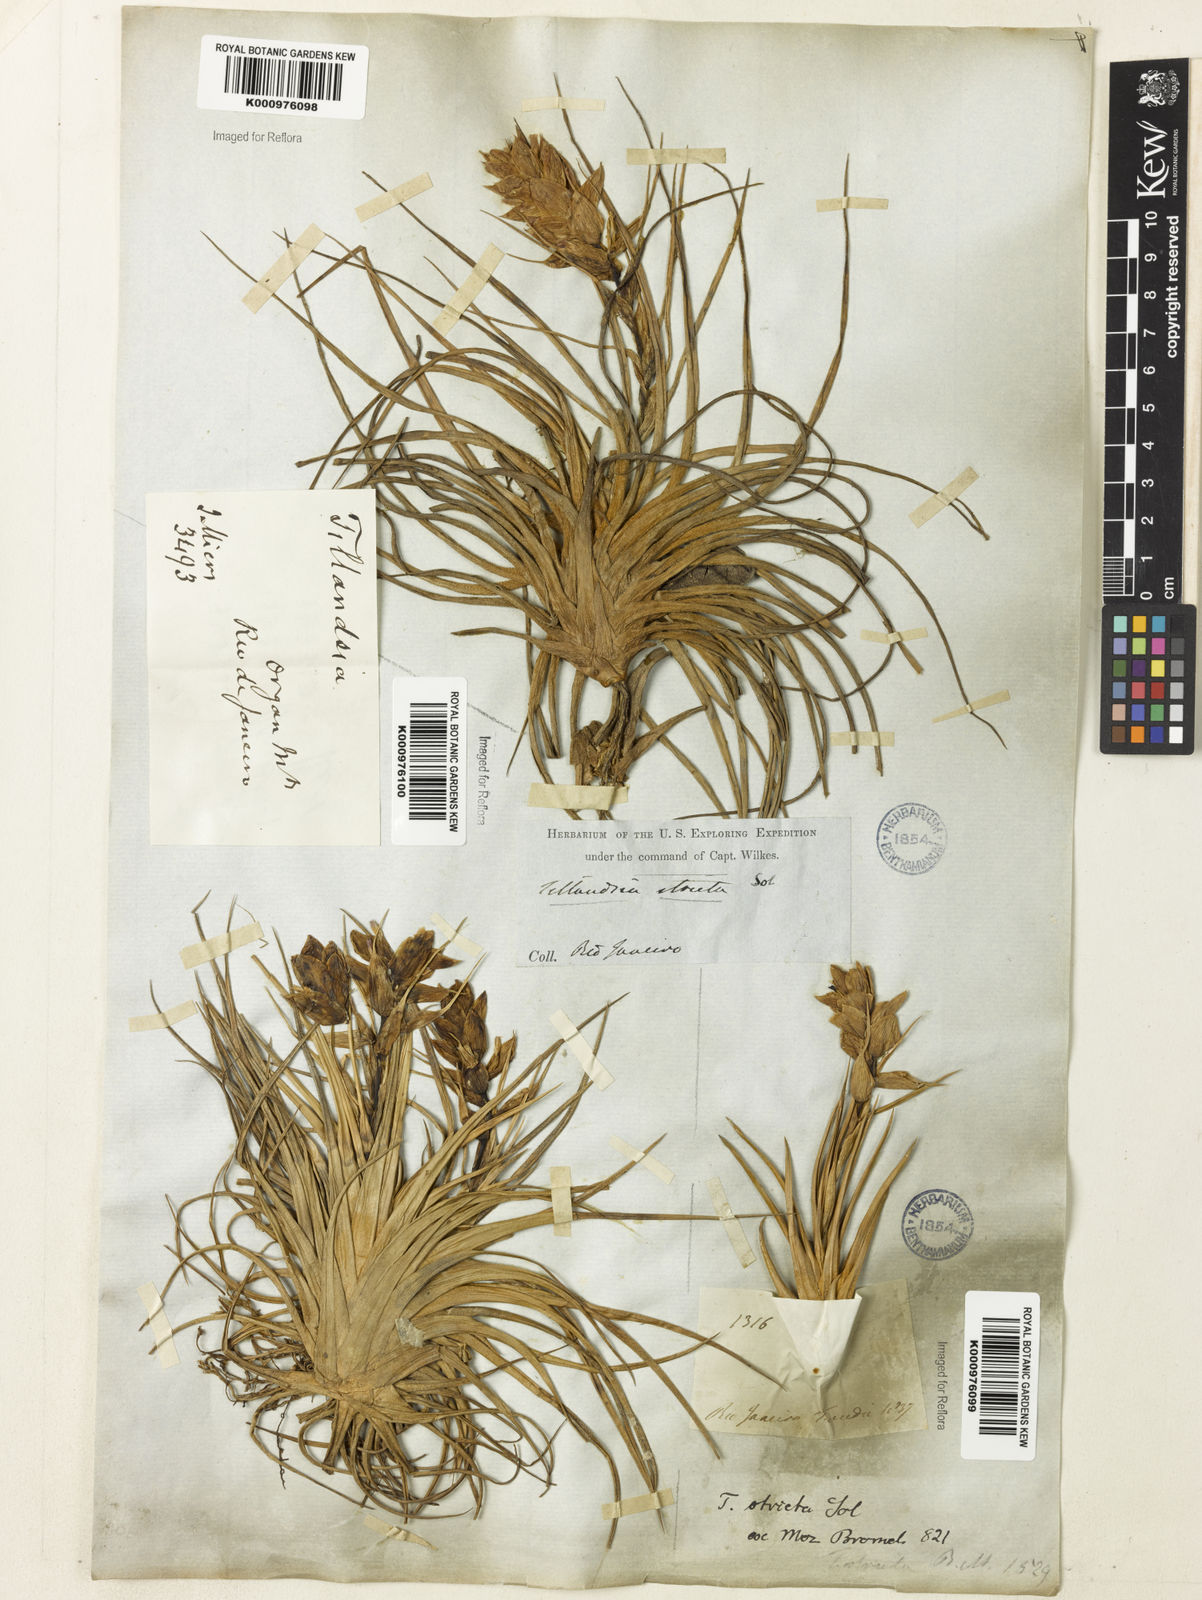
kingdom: Plantae
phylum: Tracheophyta
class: Liliopsida
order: Poales
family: Bromeliaceae
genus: Tillandsia
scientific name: Tillandsia
